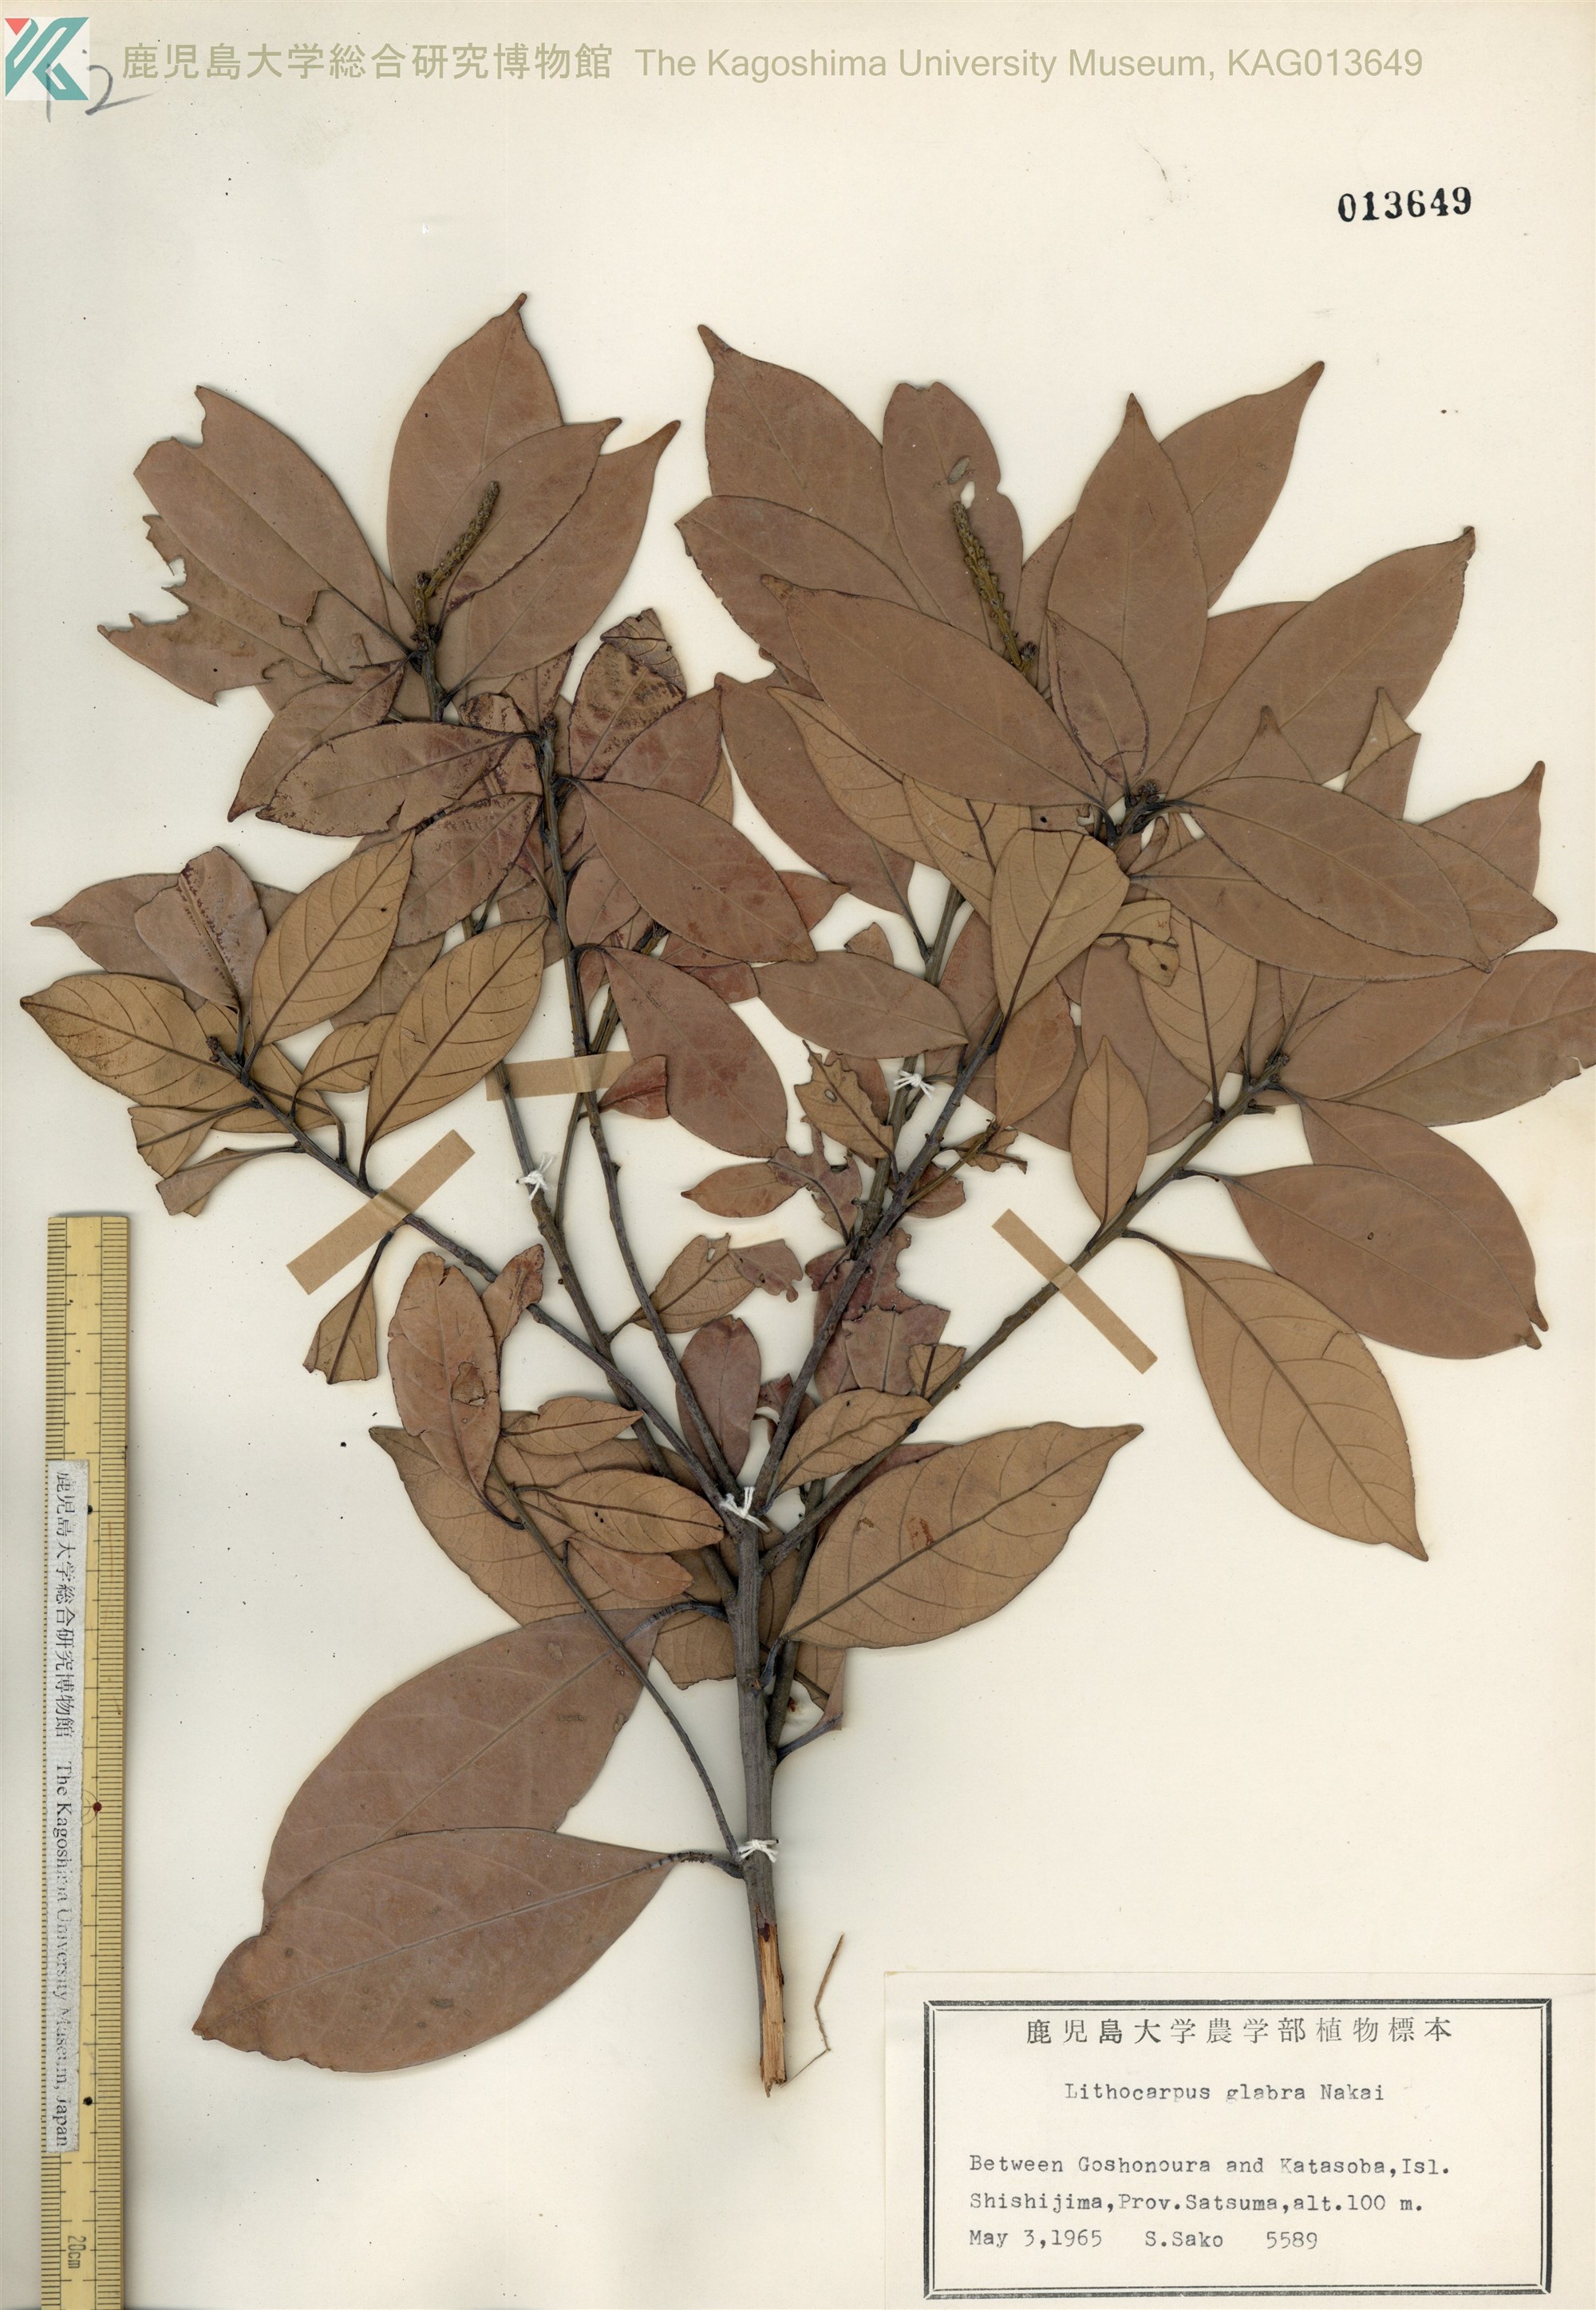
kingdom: Plantae
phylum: Tracheophyta
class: Magnoliopsida
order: Fagales
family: Fagaceae
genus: Lithocarpus
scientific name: Lithocarpus glaber
